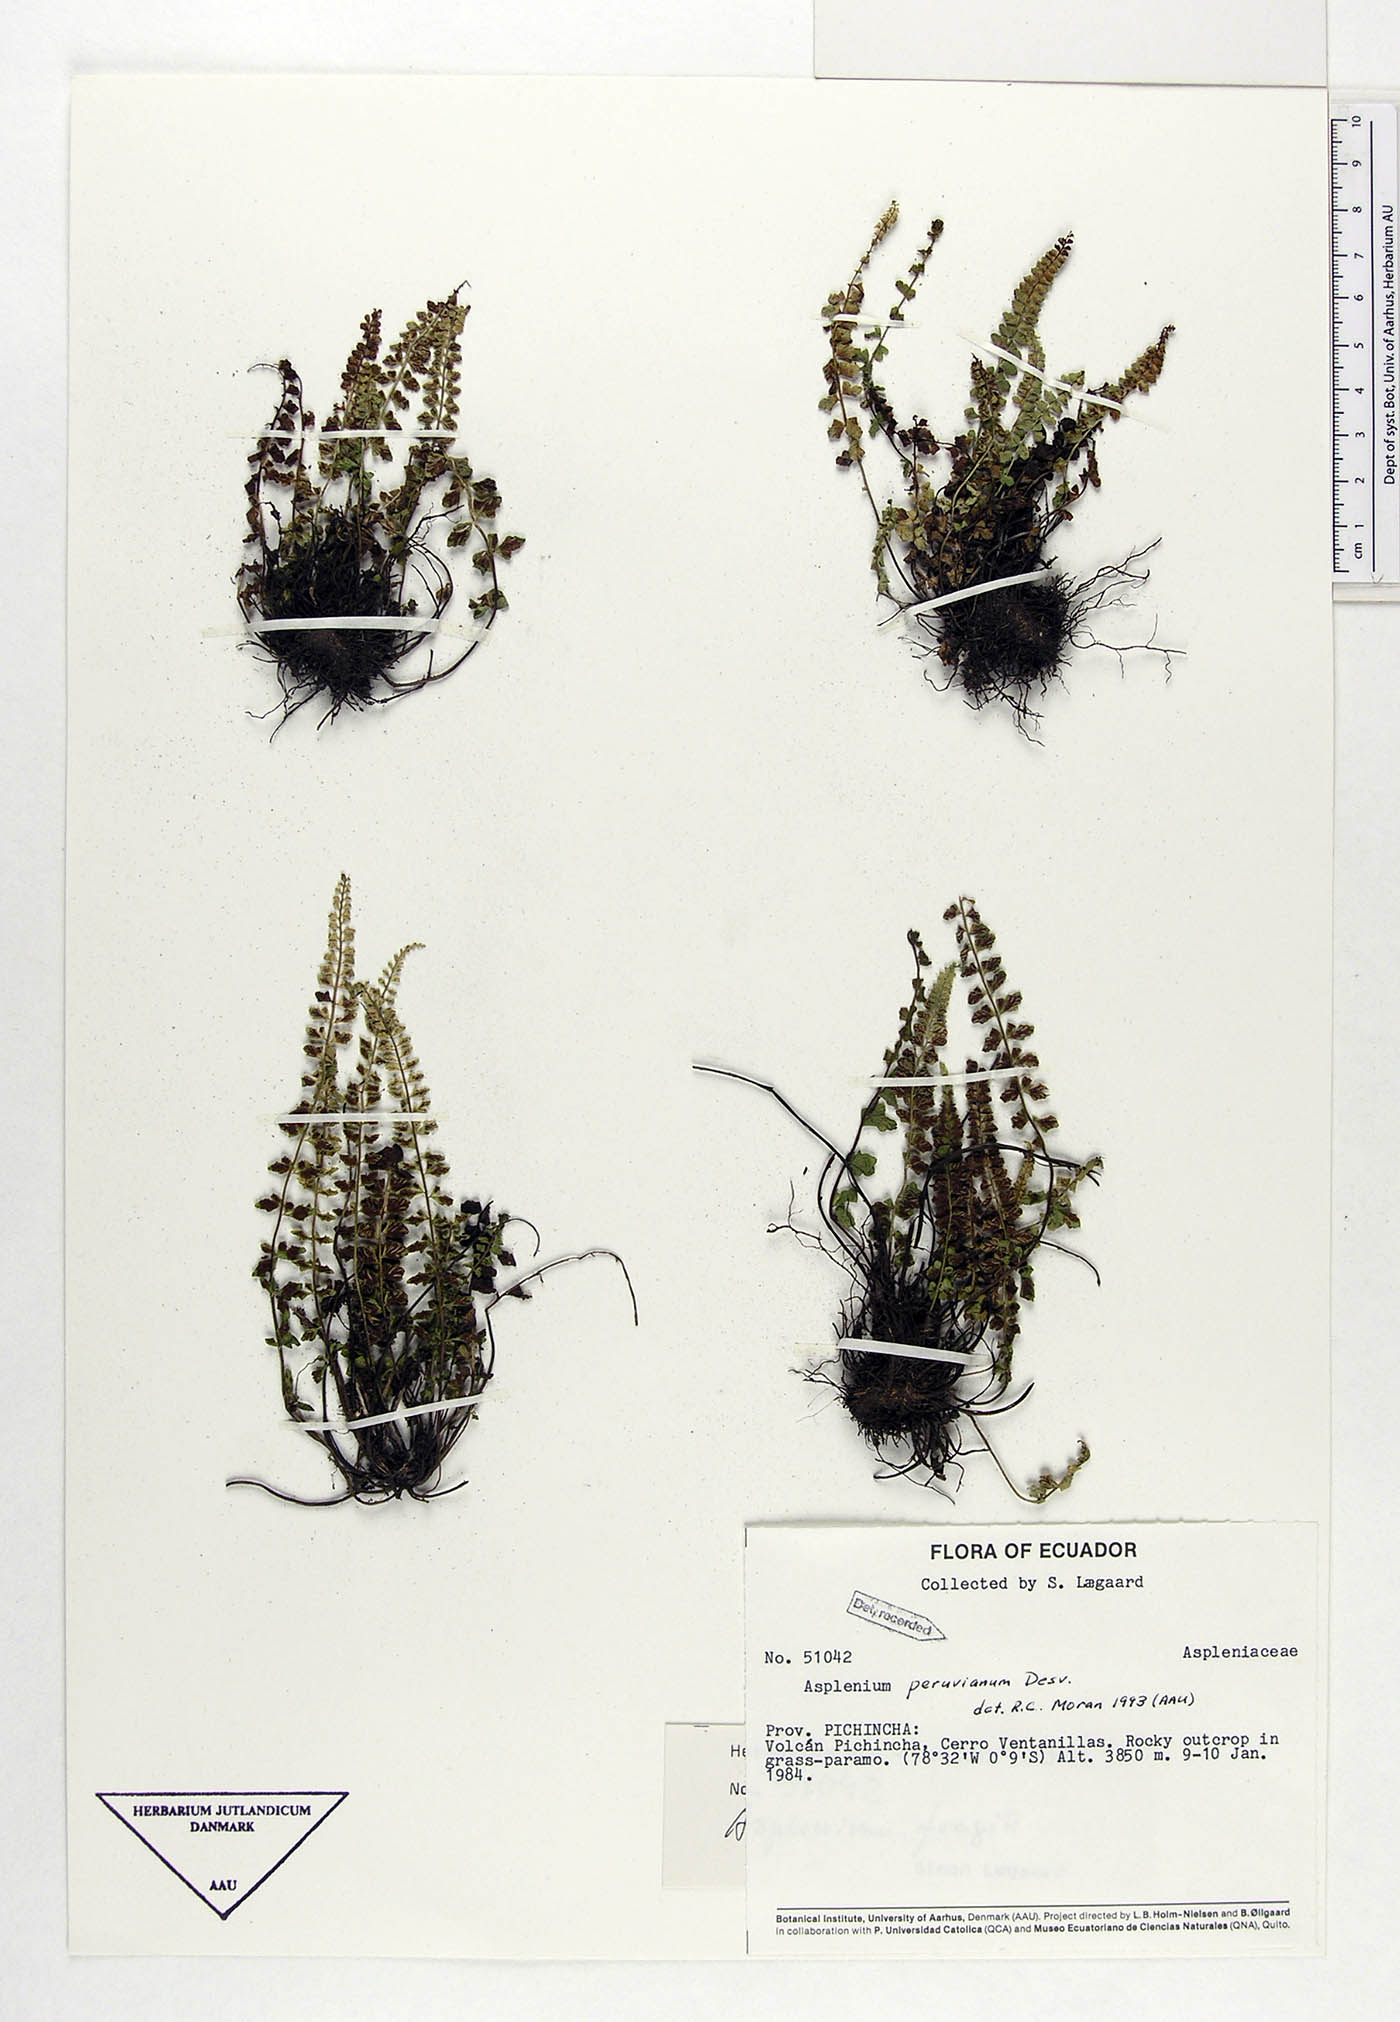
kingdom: Plantae
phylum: Tracheophyta
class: Polypodiopsida
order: Polypodiales
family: Aspleniaceae
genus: Asplenium
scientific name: Asplenium peruvianum
